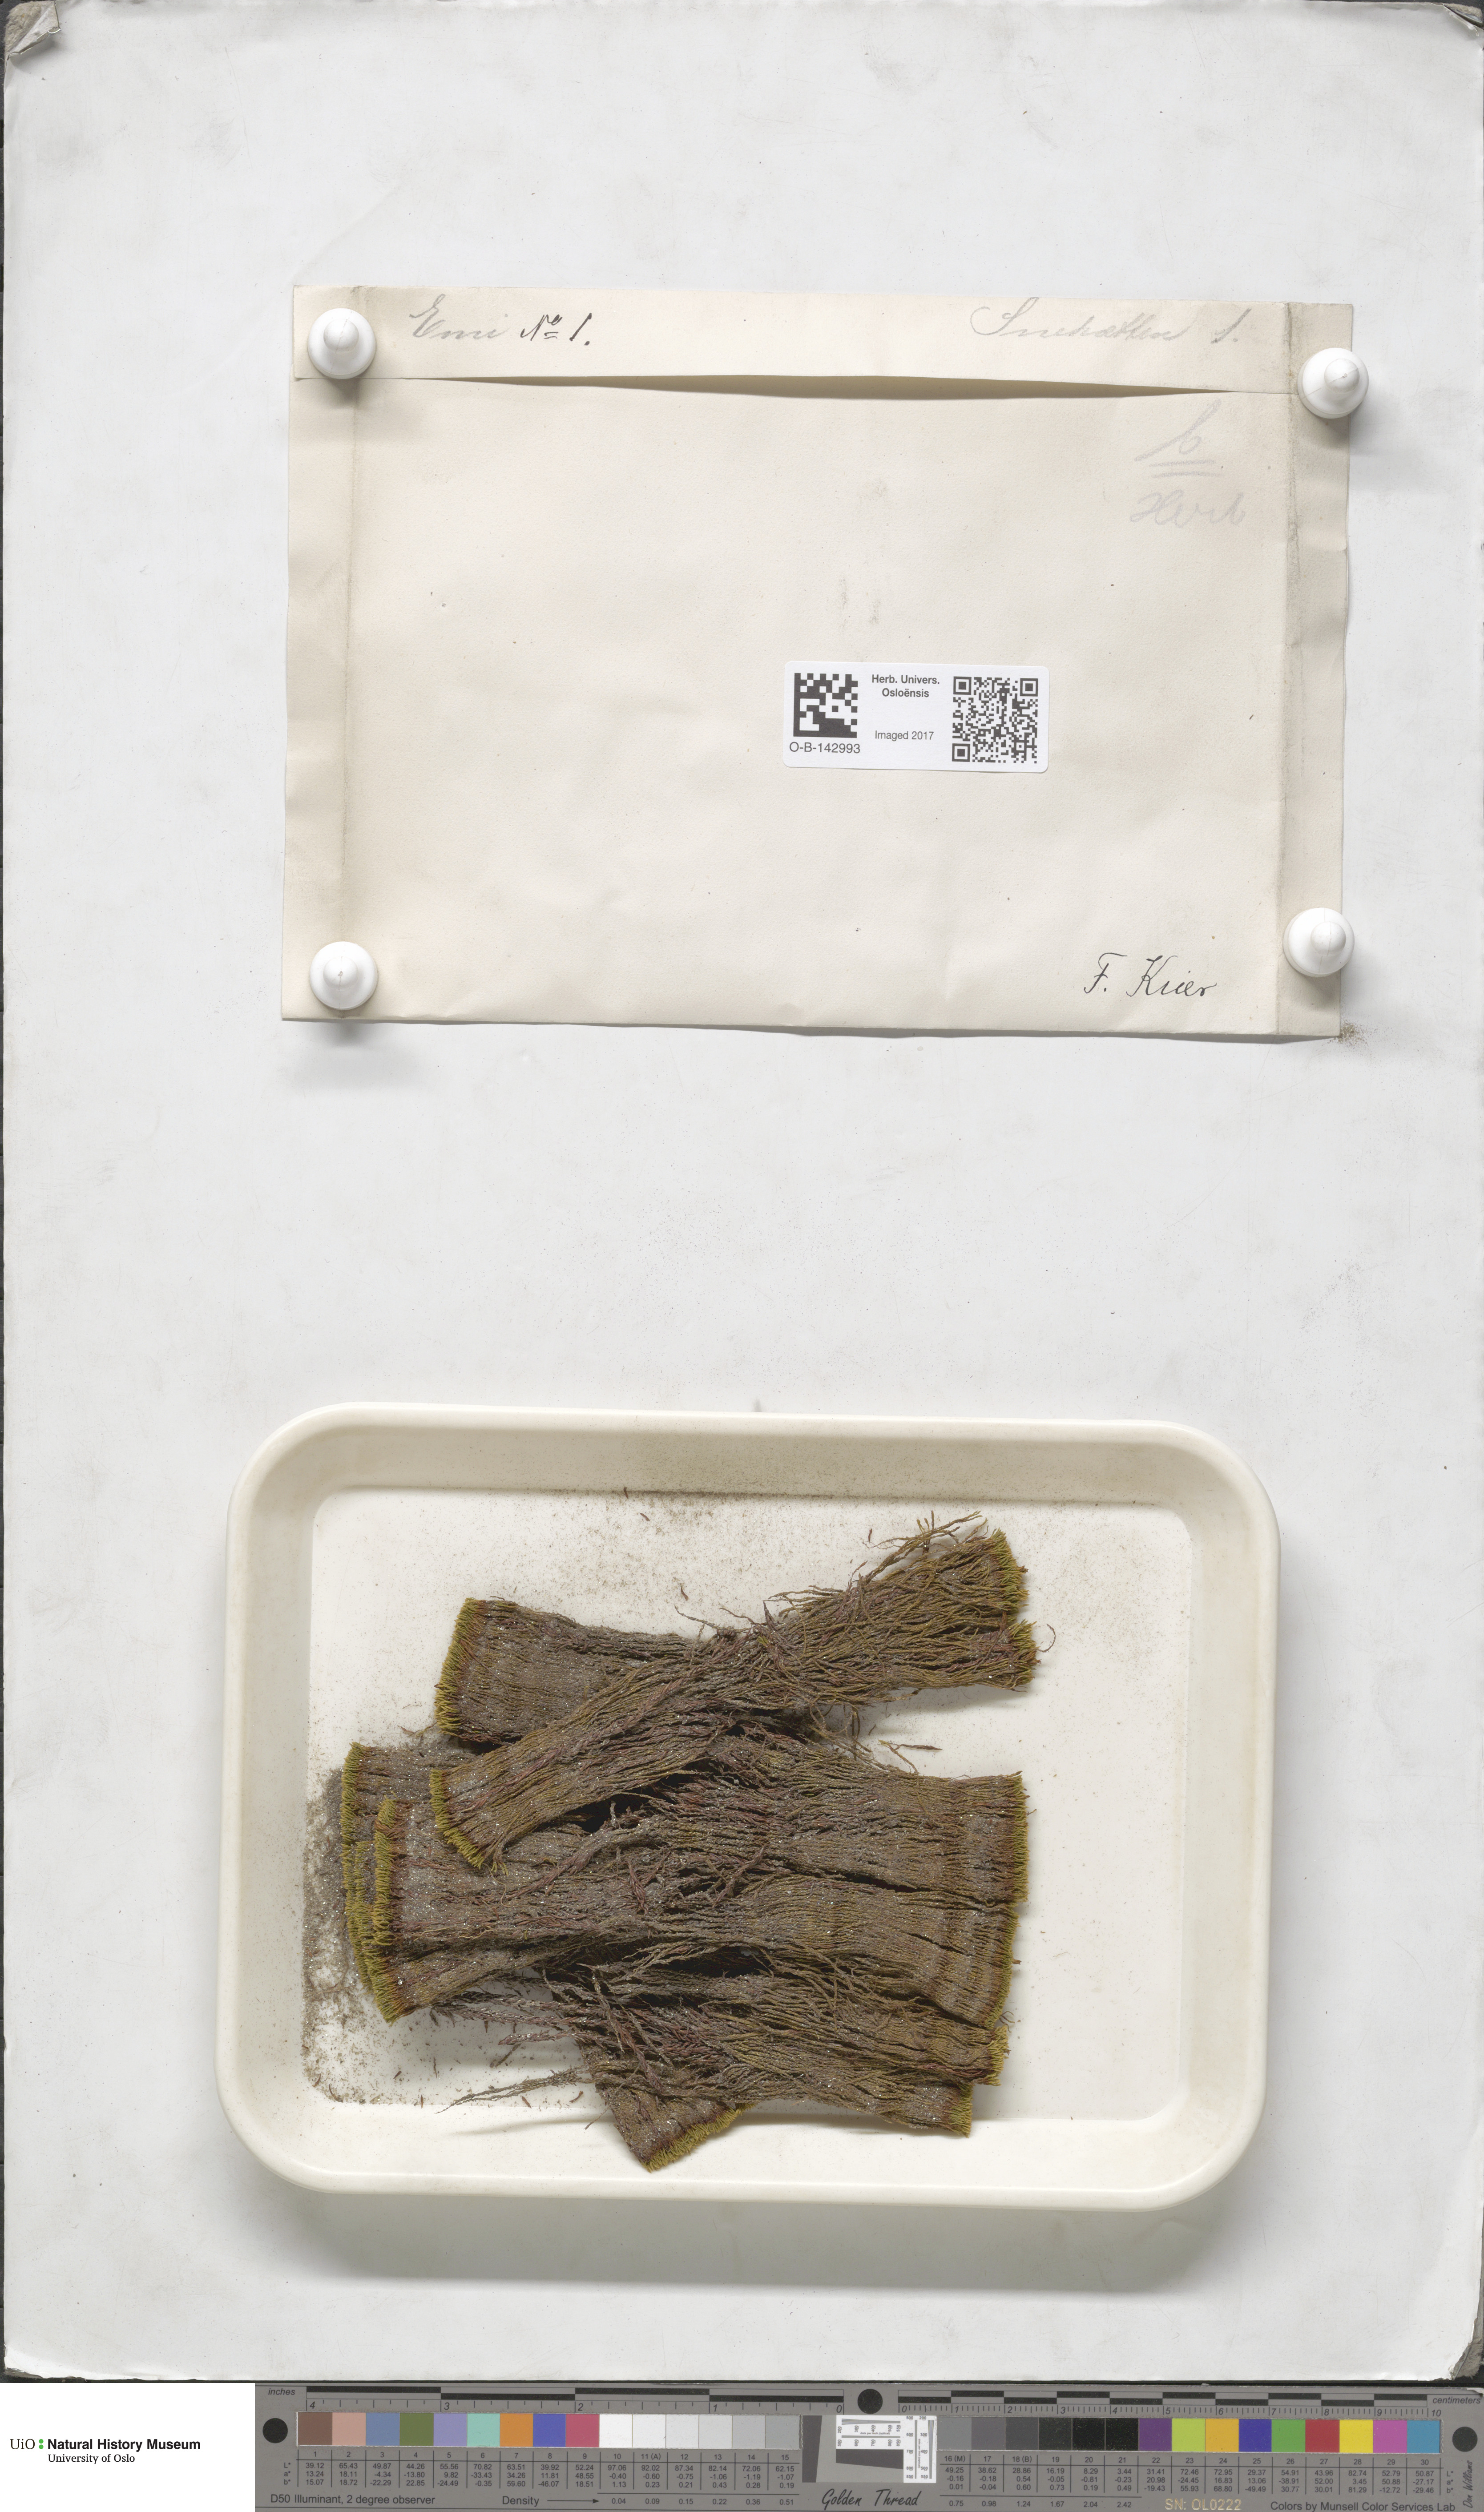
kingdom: Plantae
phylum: Bryophyta
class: Bryopsida
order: Bryales
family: Bryaceae
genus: Bryum
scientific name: Bryum
